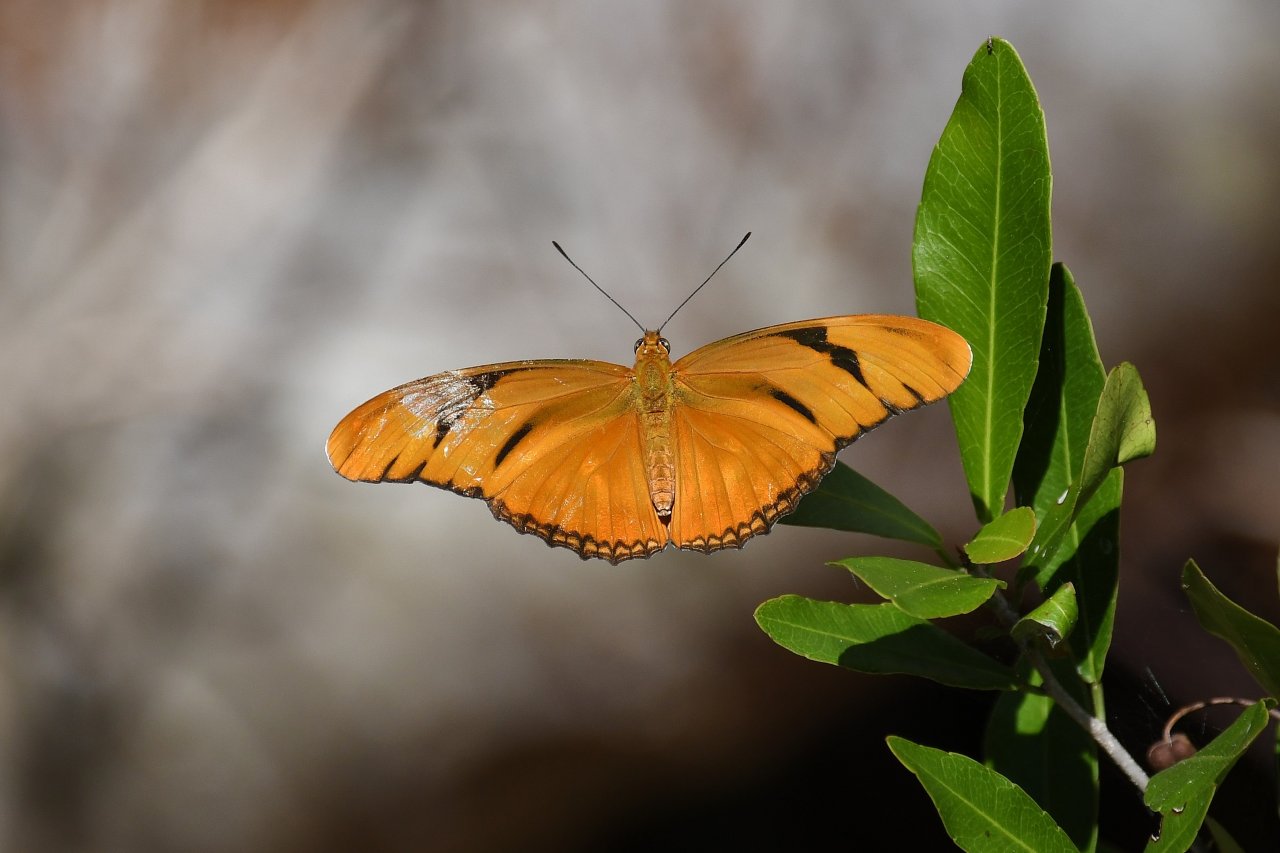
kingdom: Animalia
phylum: Arthropoda
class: Insecta
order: Lepidoptera
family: Nymphalidae
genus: Dryas
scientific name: Dryas iulia
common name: Julia
